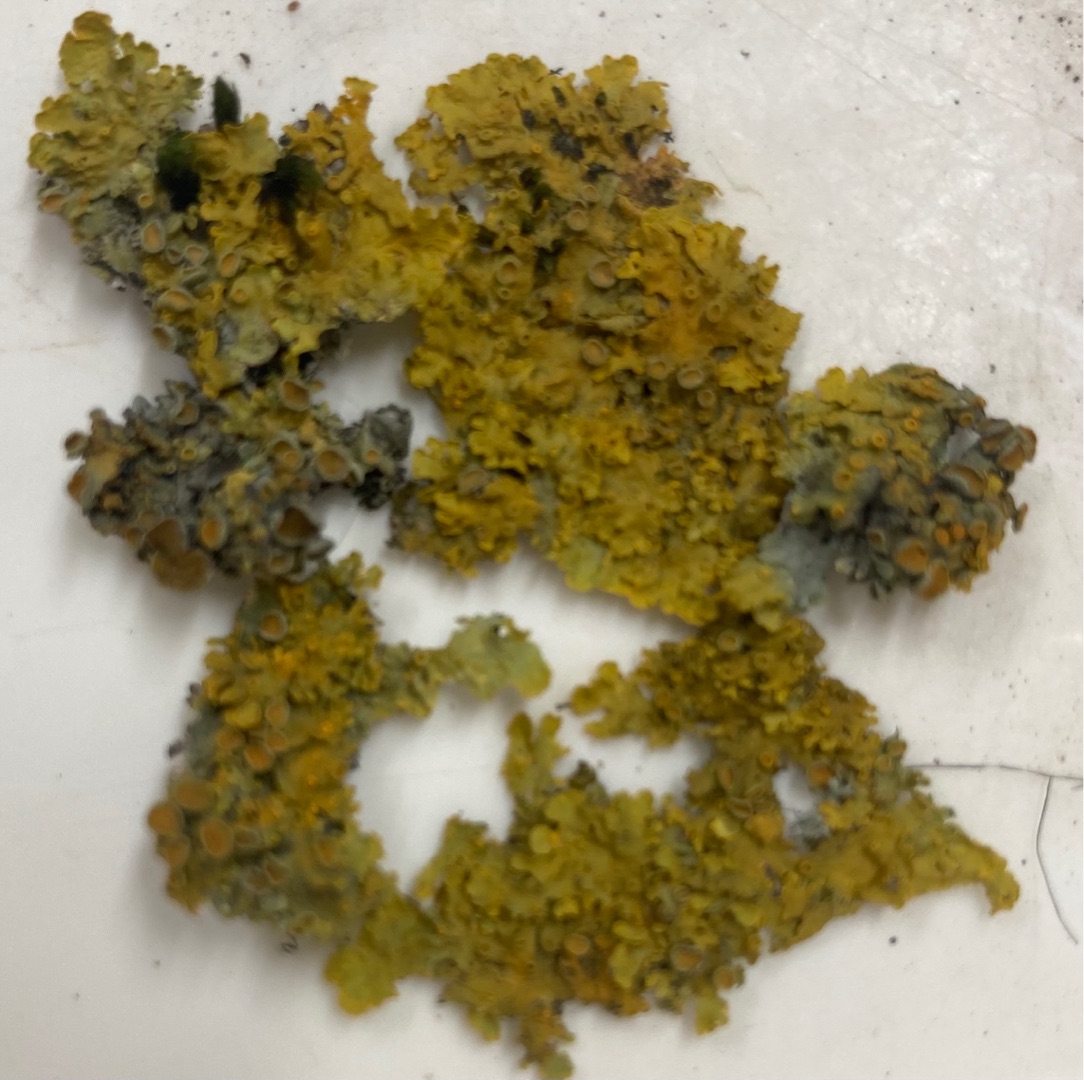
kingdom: Fungi
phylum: Ascomycota
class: Lecanoromycetes
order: Teloschistales
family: Teloschistaceae
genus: Xanthoria
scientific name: Xanthoria parietina
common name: Almindelig væggelav
